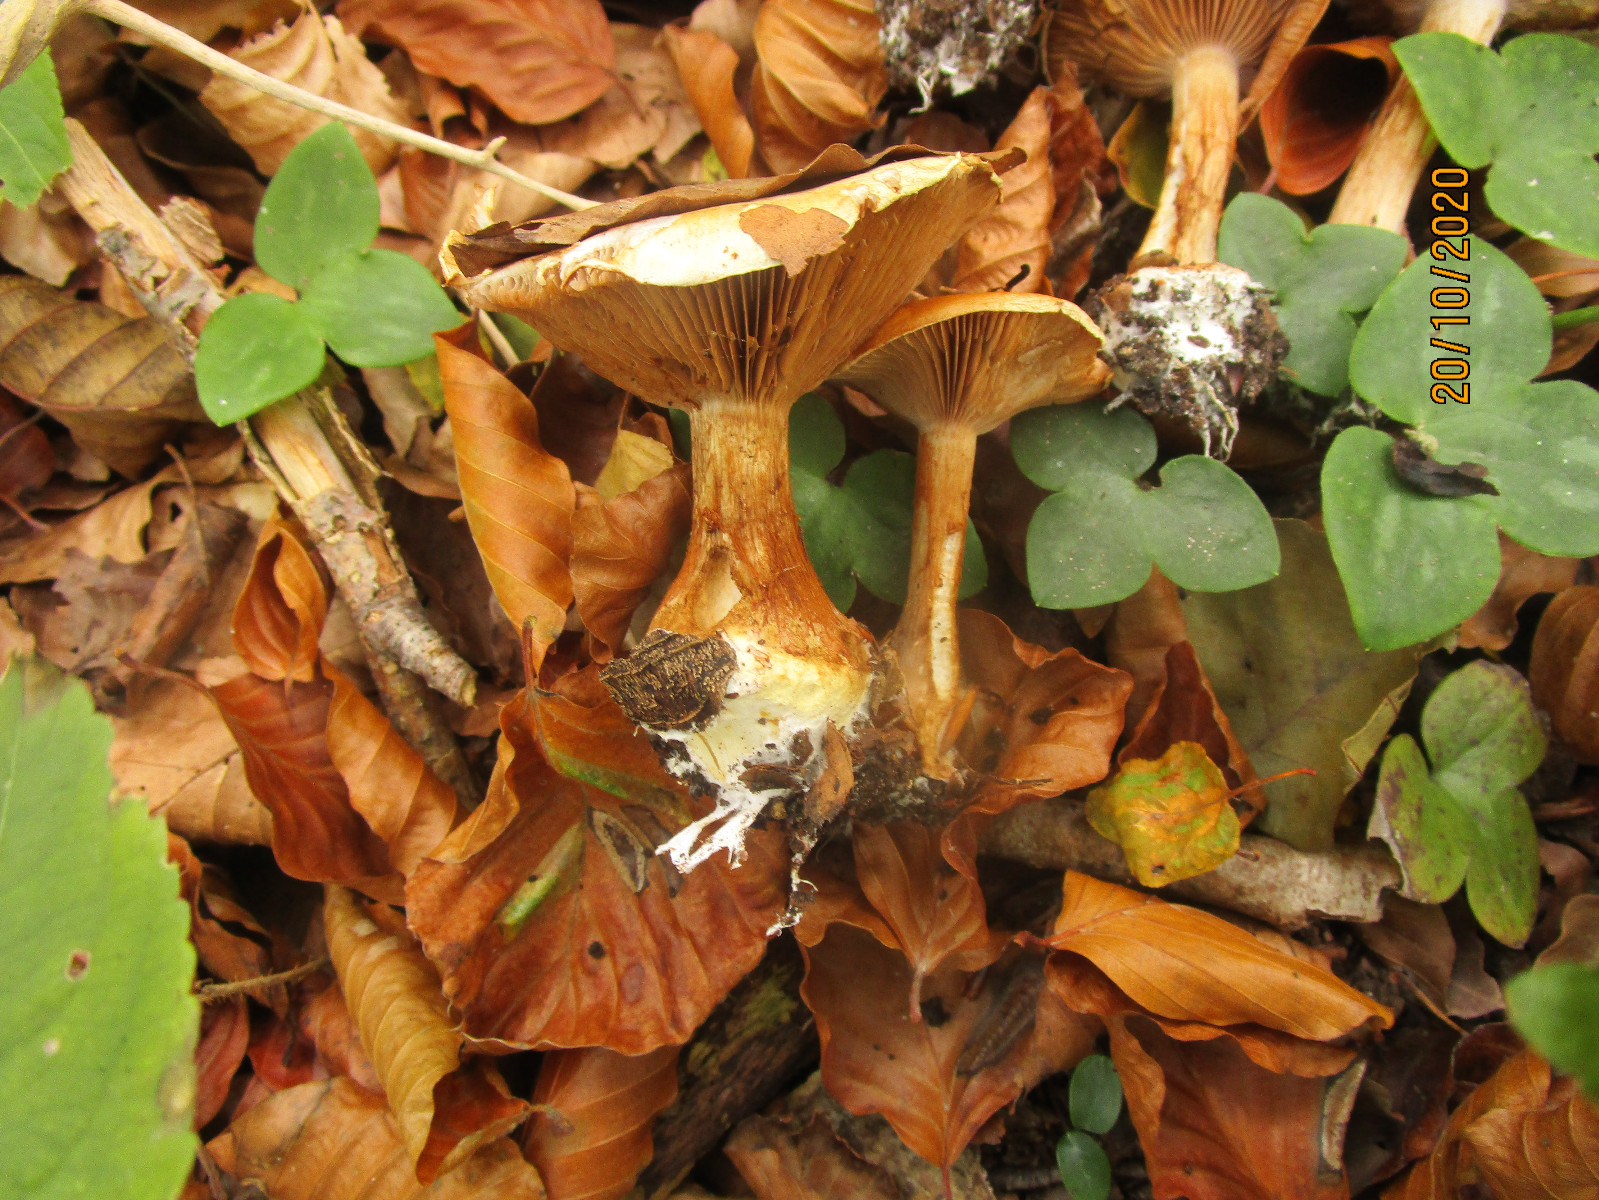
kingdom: Fungi
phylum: Basidiomycota
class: Agaricomycetes
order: Agaricales
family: Cortinariaceae
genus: Cortinarius
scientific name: Cortinarius
